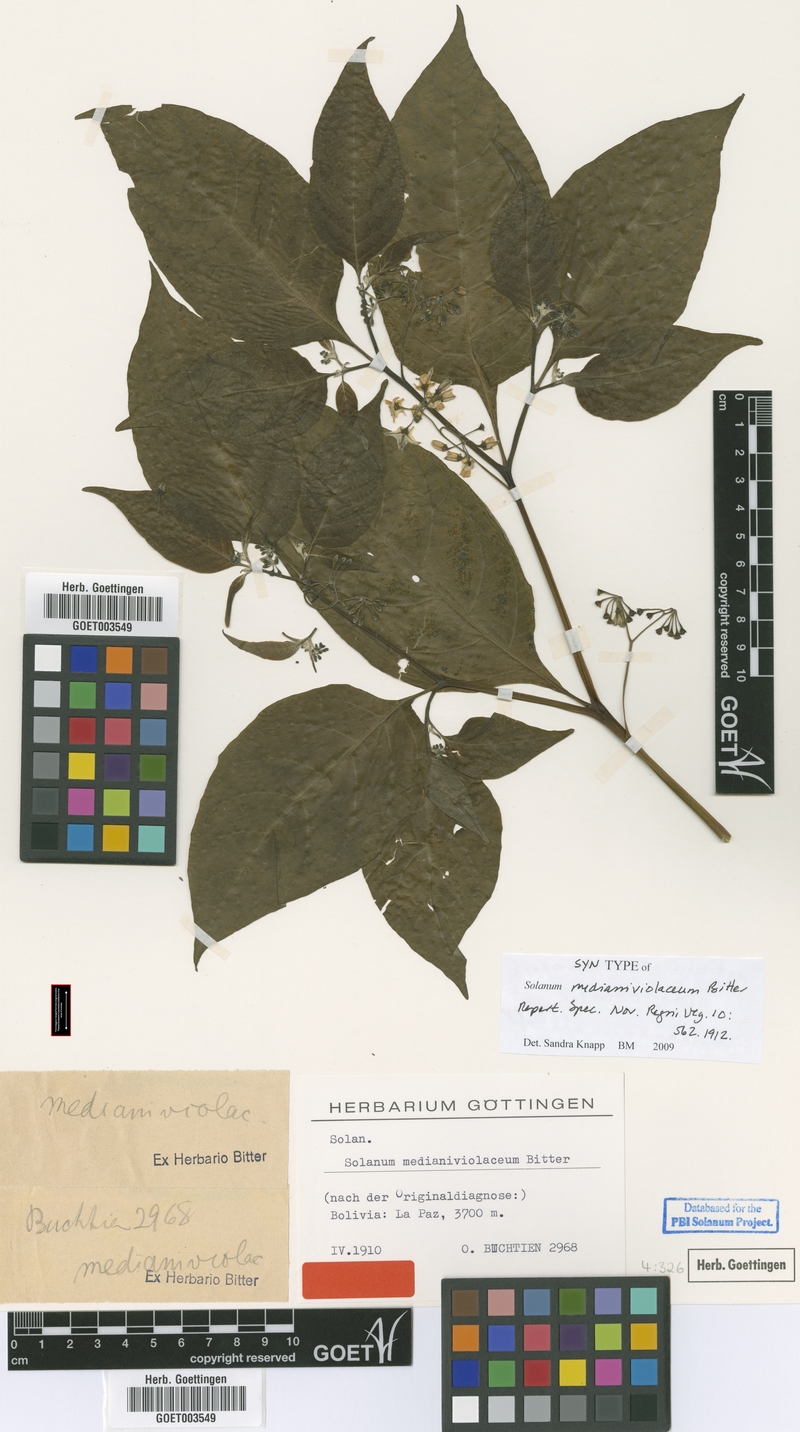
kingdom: Plantae
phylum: Tracheophyta
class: Magnoliopsida
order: Solanales
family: Solanaceae
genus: Solanum
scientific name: Solanum polytrichostylum
